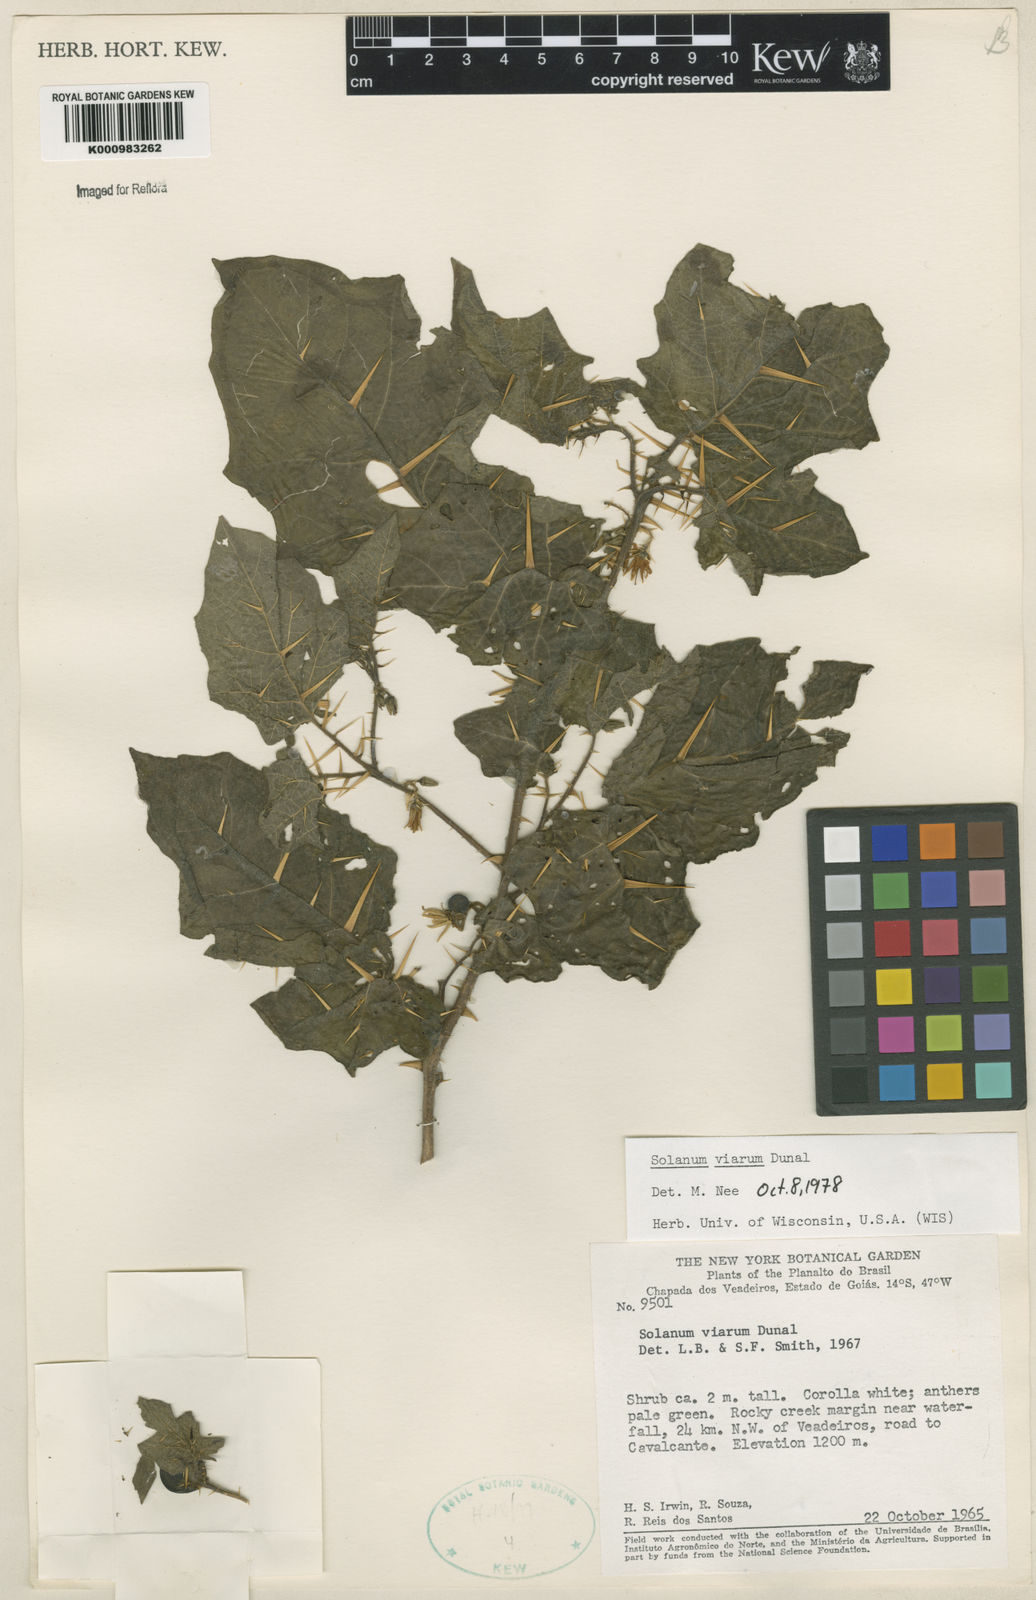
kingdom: Plantae
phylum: Tracheophyta
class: Magnoliopsida
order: Solanales
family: Solanaceae
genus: Solanum
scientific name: Solanum viarum
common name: Tropical soda apple
